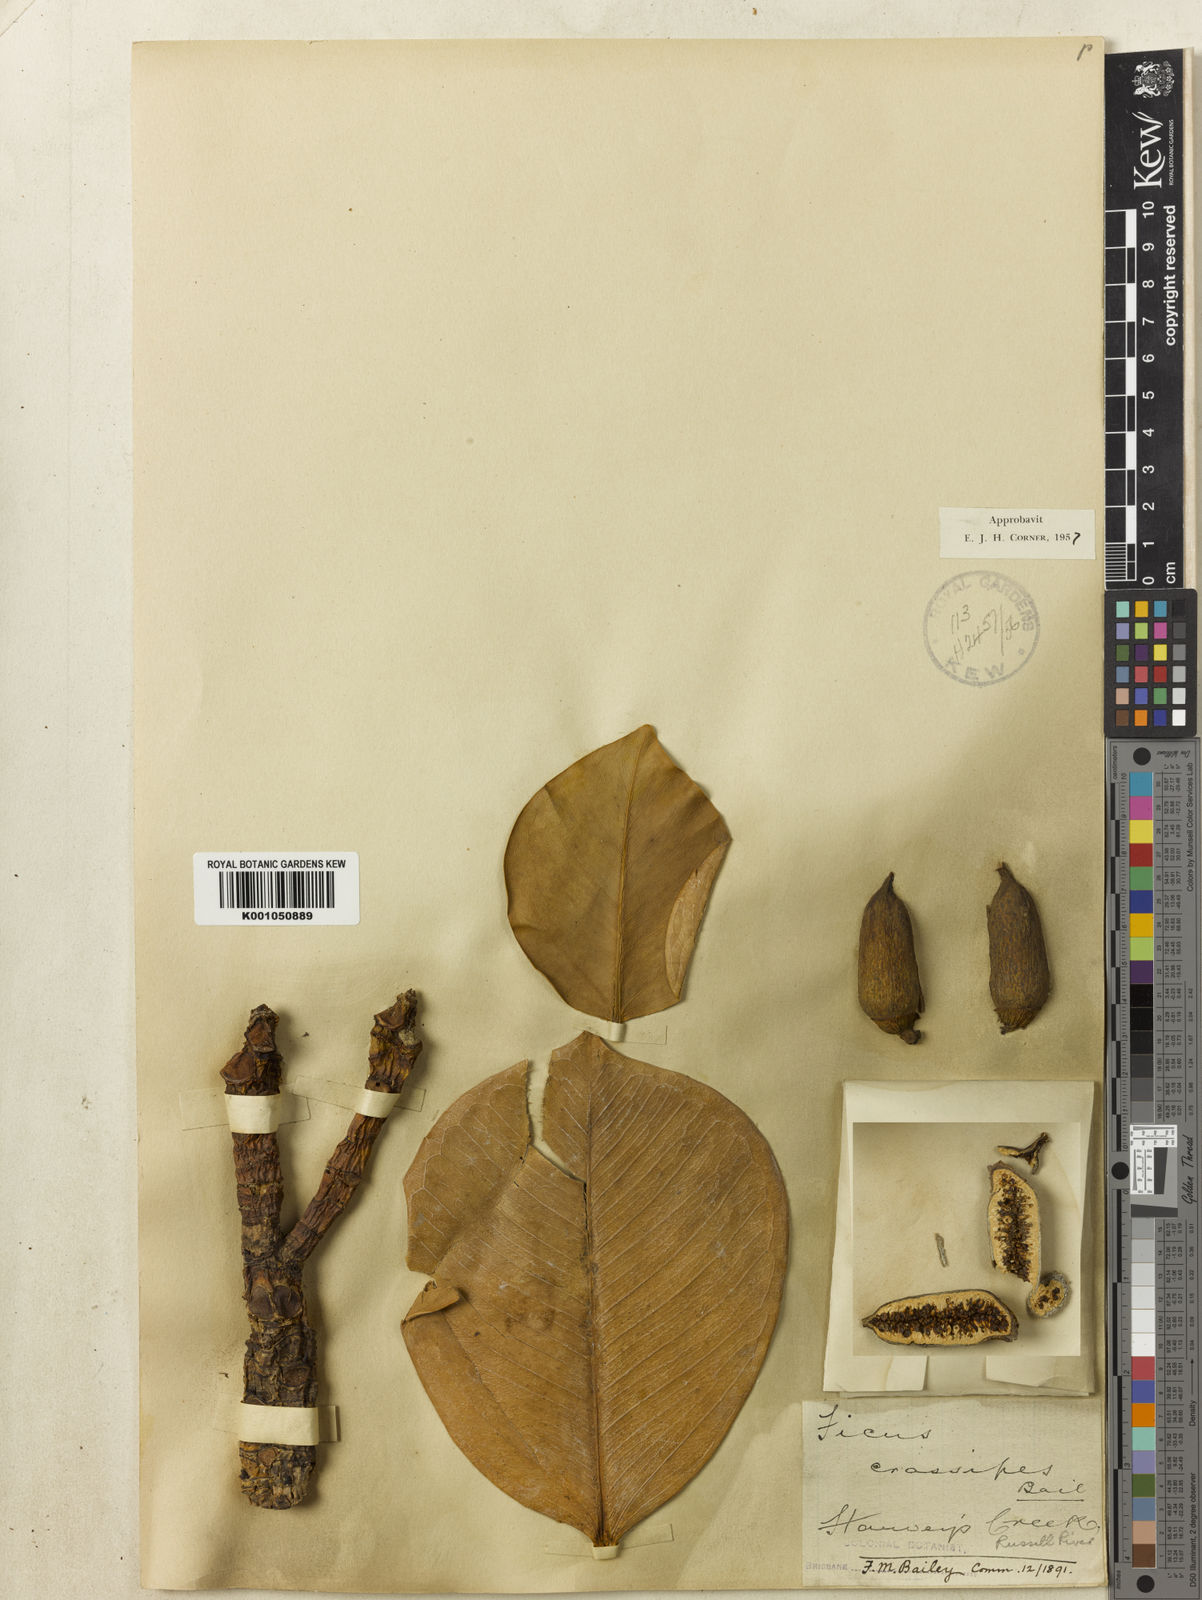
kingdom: Plantae
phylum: Tracheophyta
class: Magnoliopsida
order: Rosales
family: Moraceae
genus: Ficus
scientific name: Ficus crassipes
